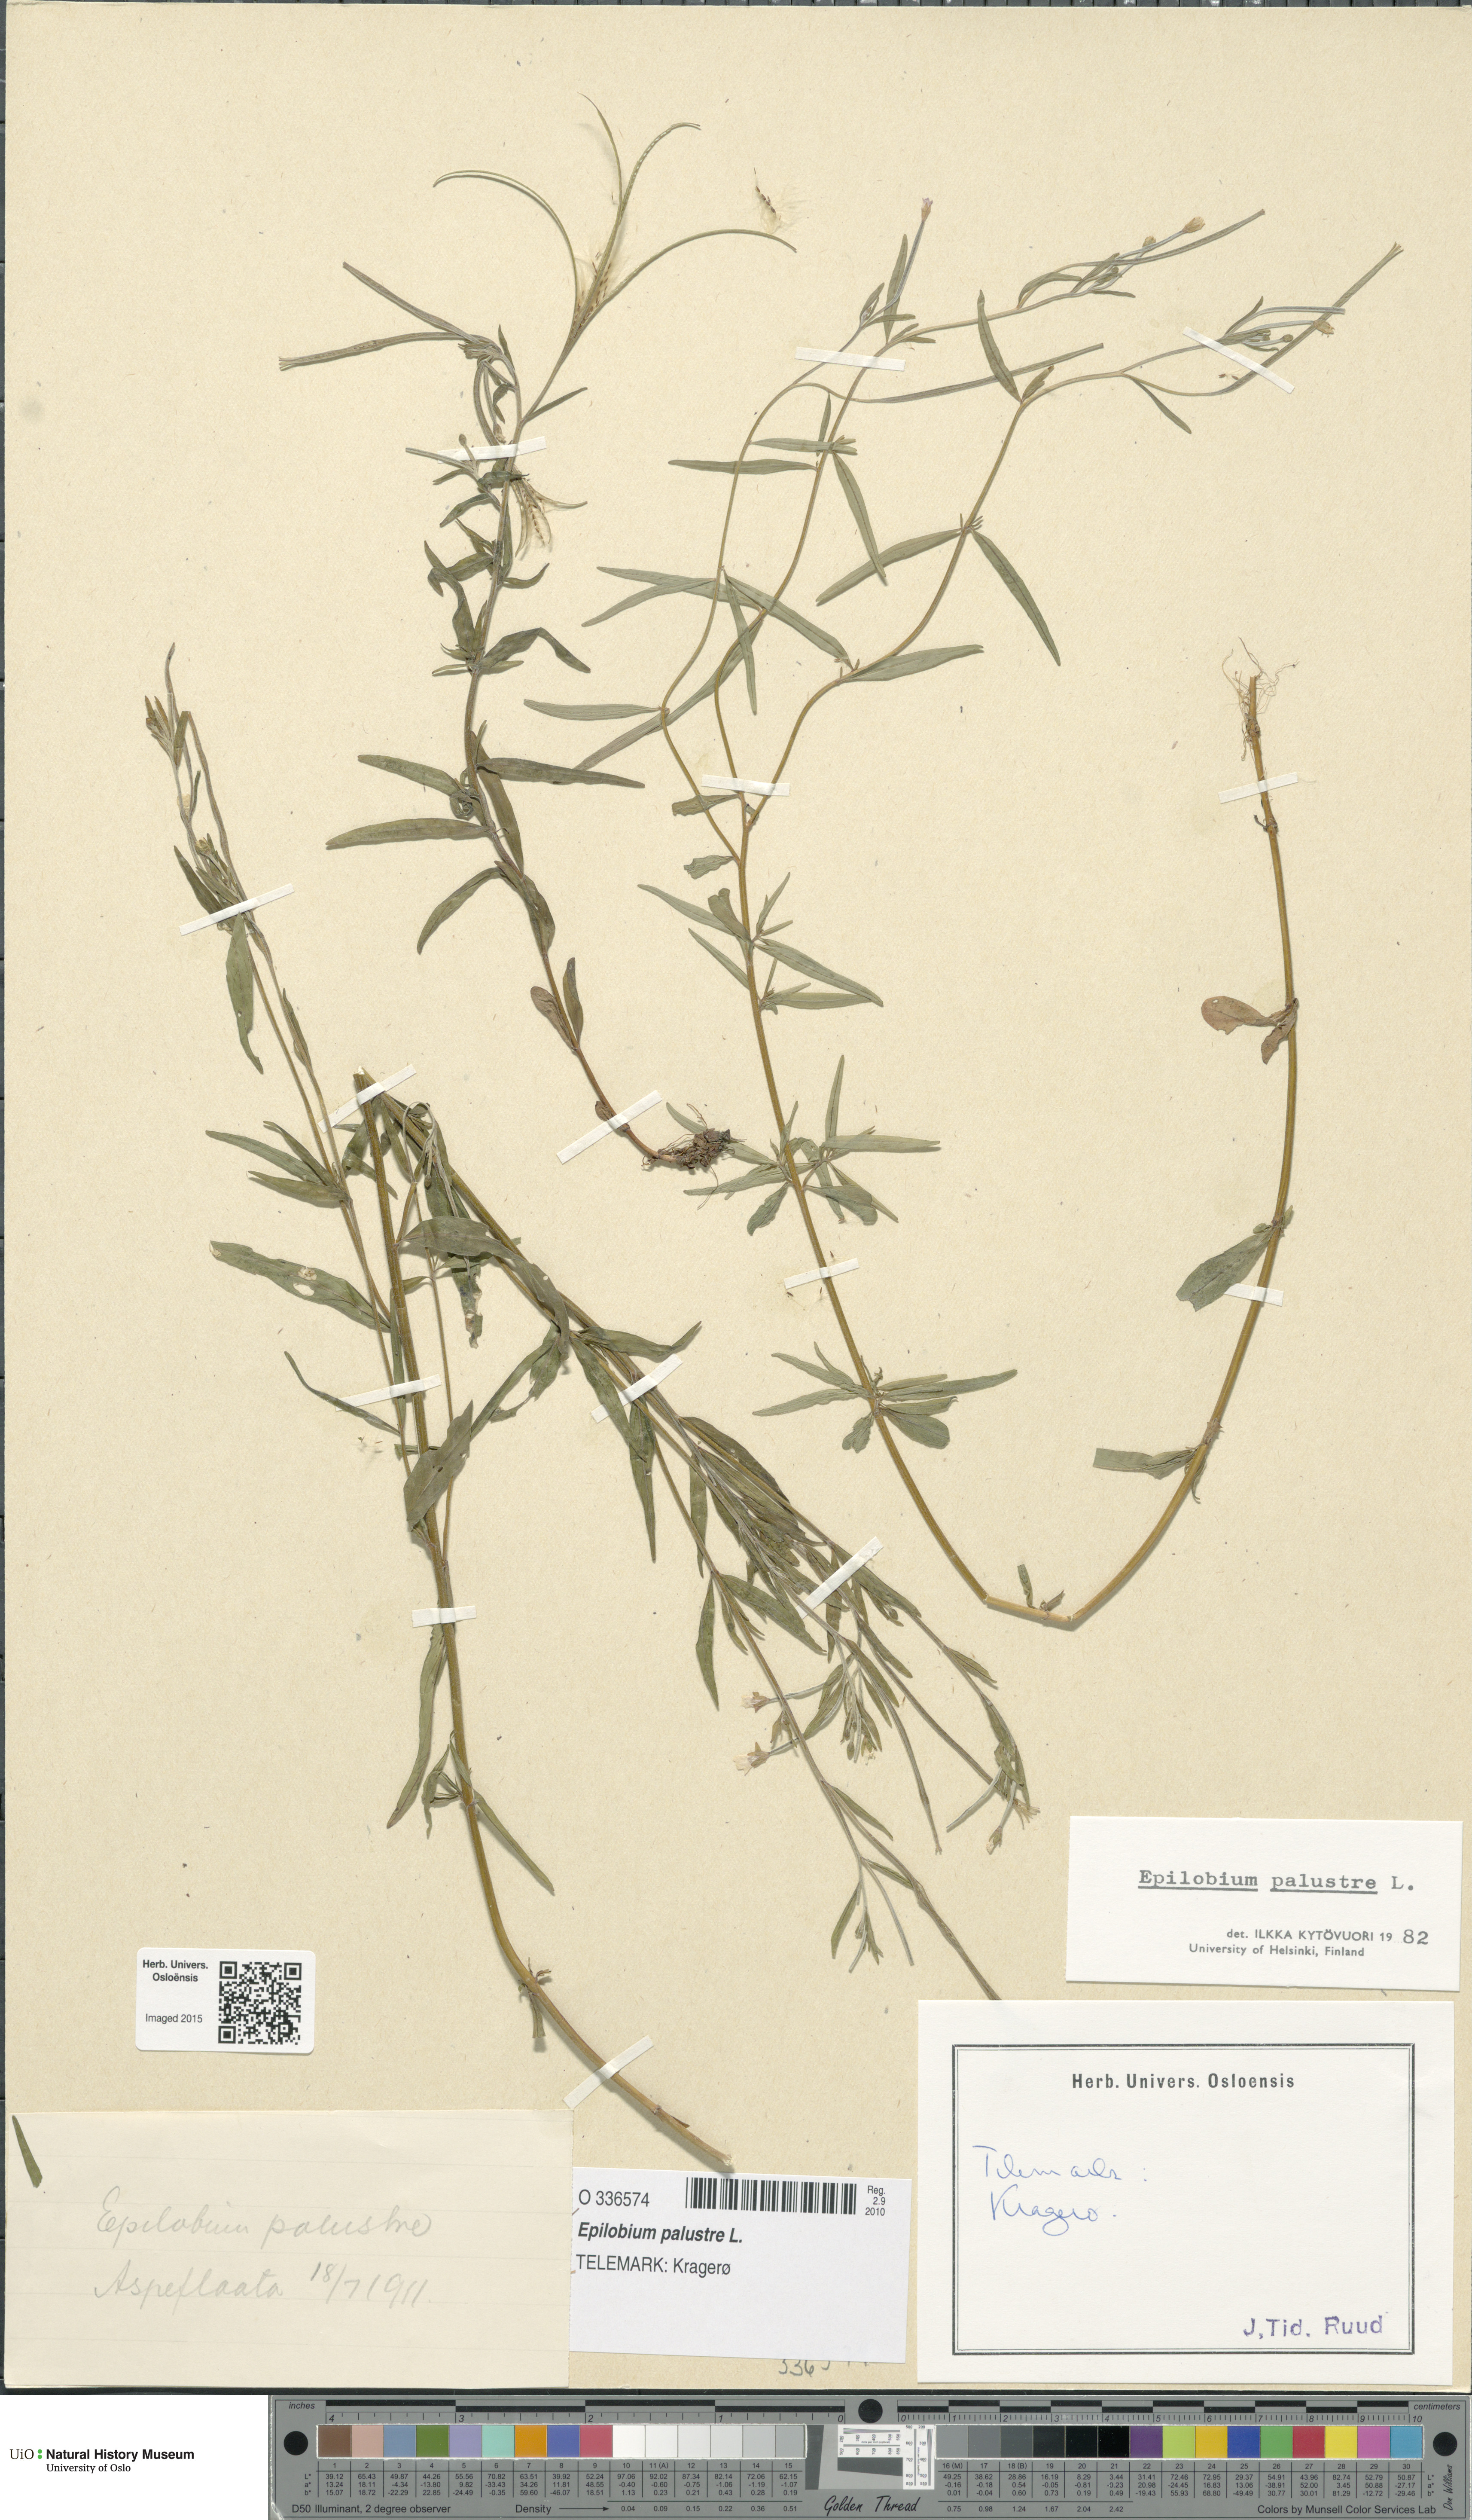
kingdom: Plantae
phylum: Tracheophyta
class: Magnoliopsida
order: Myrtales
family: Onagraceae
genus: Epilobium
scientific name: Epilobium palustre
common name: Marsh willowherb
